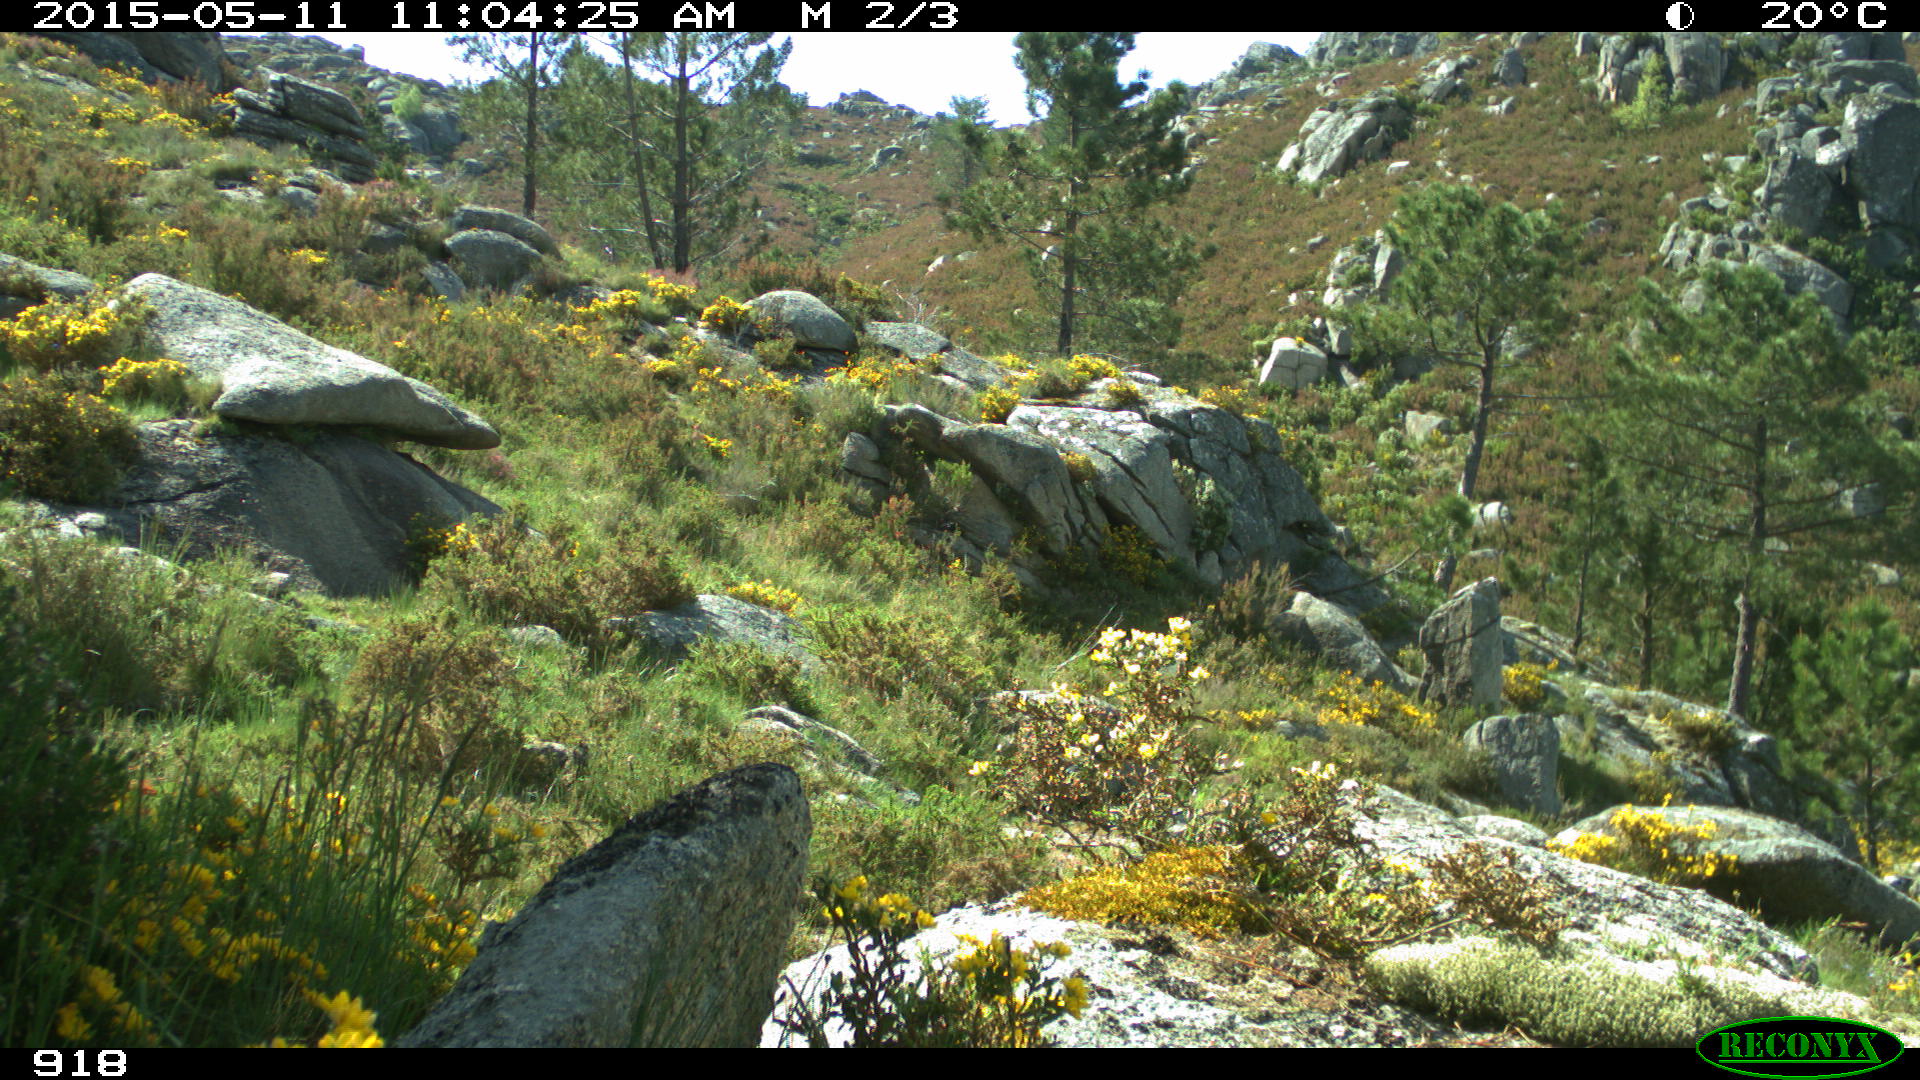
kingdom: Animalia
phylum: Chordata
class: Aves
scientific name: Aves
